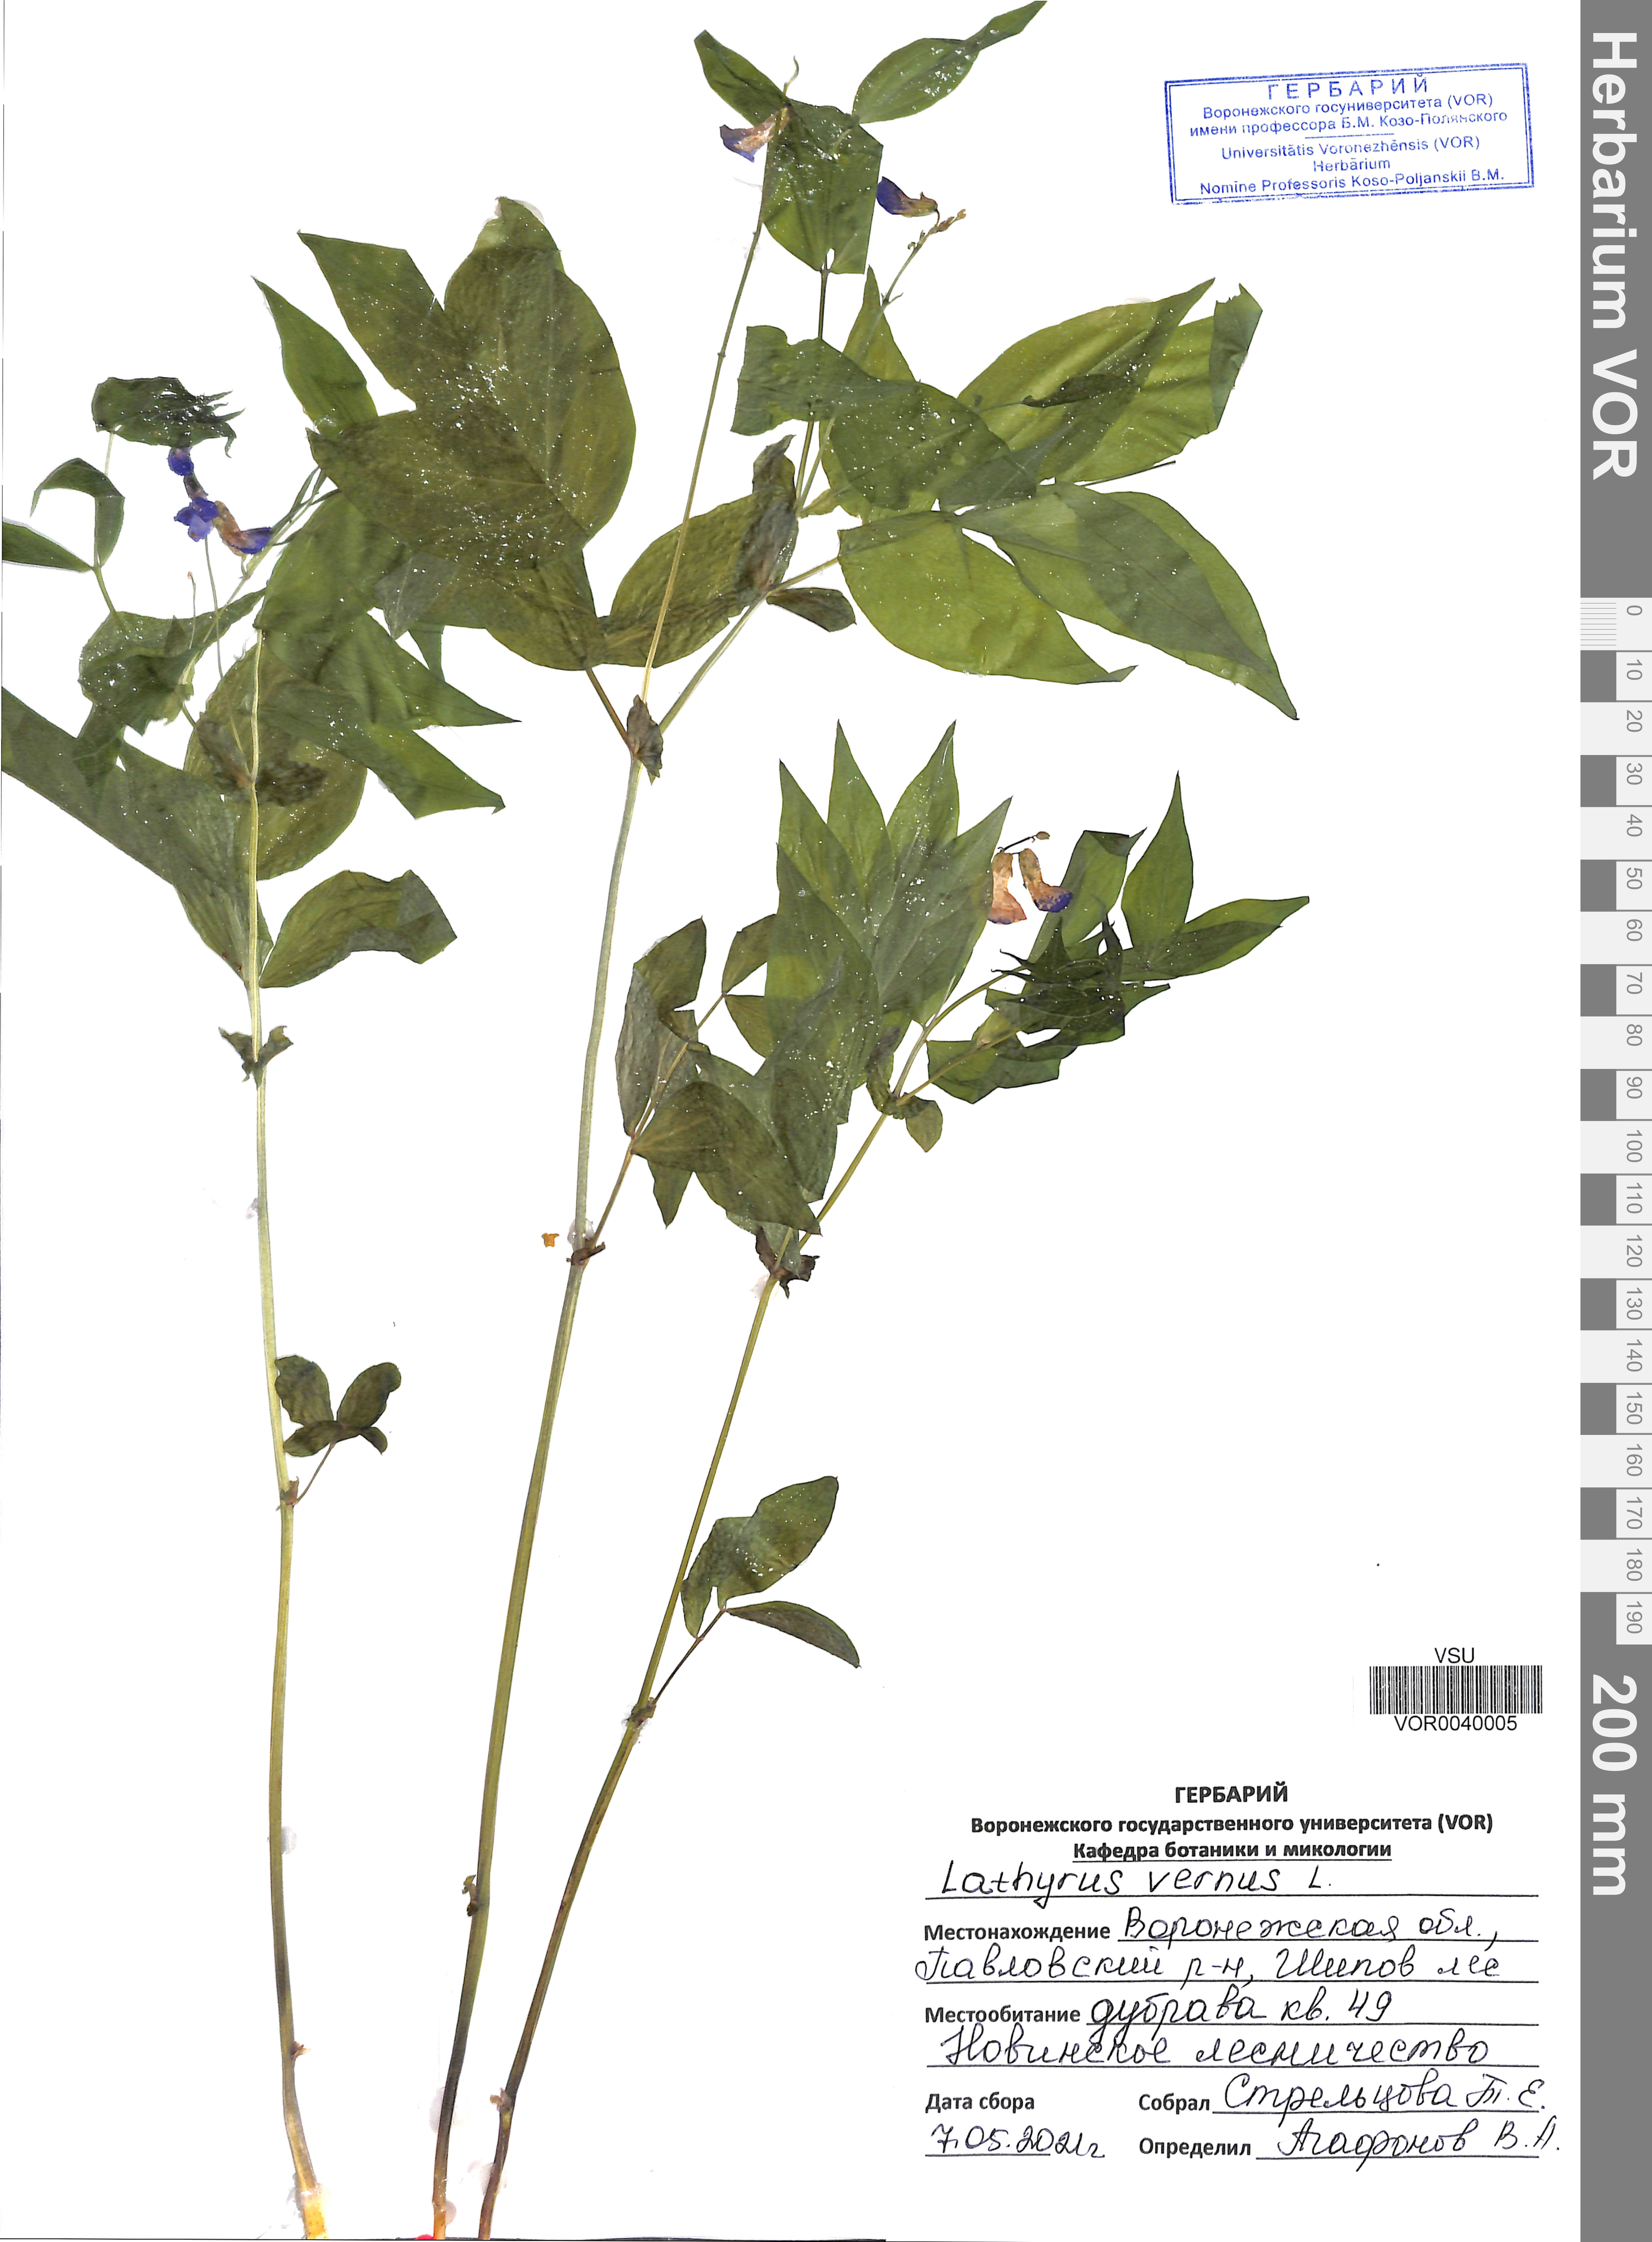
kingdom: Plantae
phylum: Tracheophyta
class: Magnoliopsida
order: Fabales
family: Fabaceae
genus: Lathyrus
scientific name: Lathyrus vernus
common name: Spring pea
